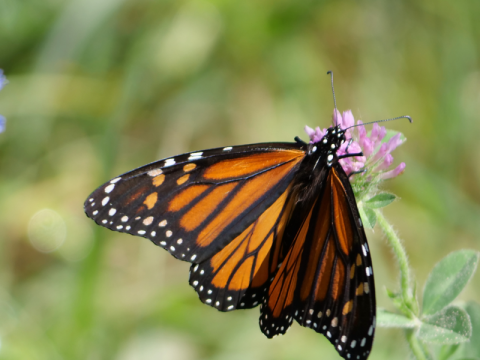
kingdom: Animalia
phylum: Arthropoda
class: Insecta
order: Lepidoptera
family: Nymphalidae
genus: Danaus
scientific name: Danaus plexippus
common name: Monarch
